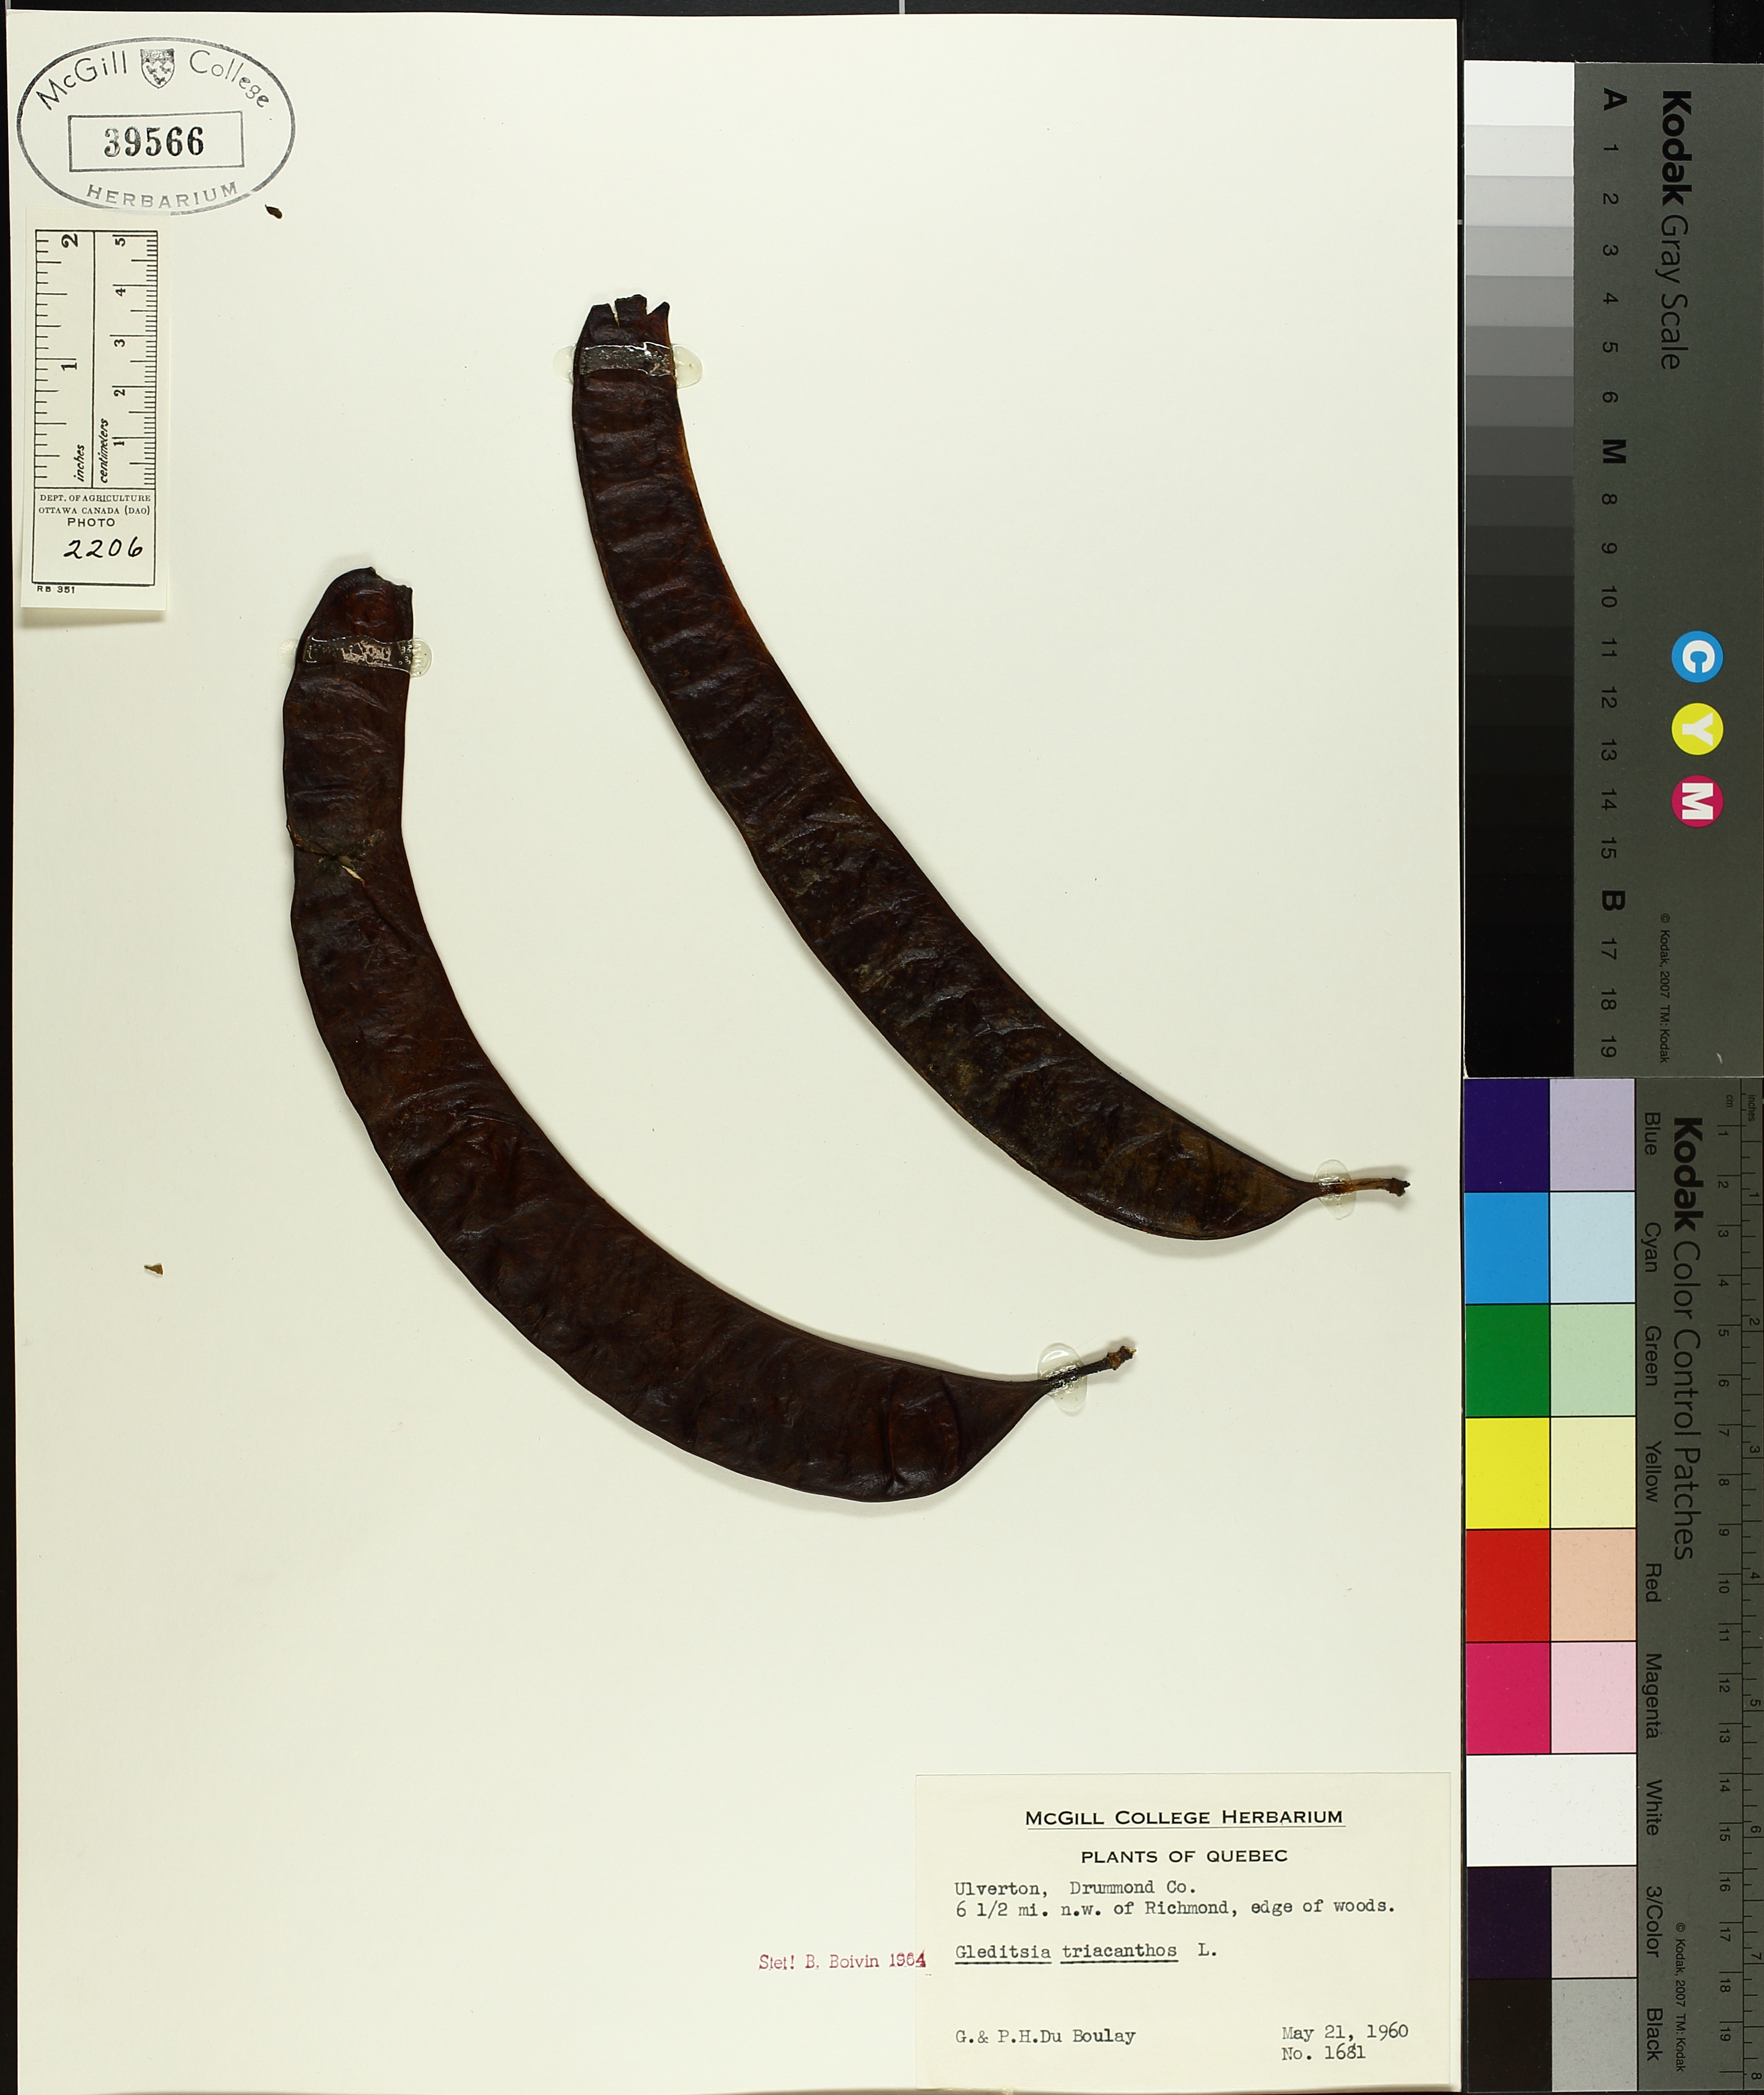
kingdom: Plantae
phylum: Tracheophyta
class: Magnoliopsida
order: Fabales
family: Fabaceae
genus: Gleditsia
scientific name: Gleditsia triacanthos
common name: Common honeylocust
